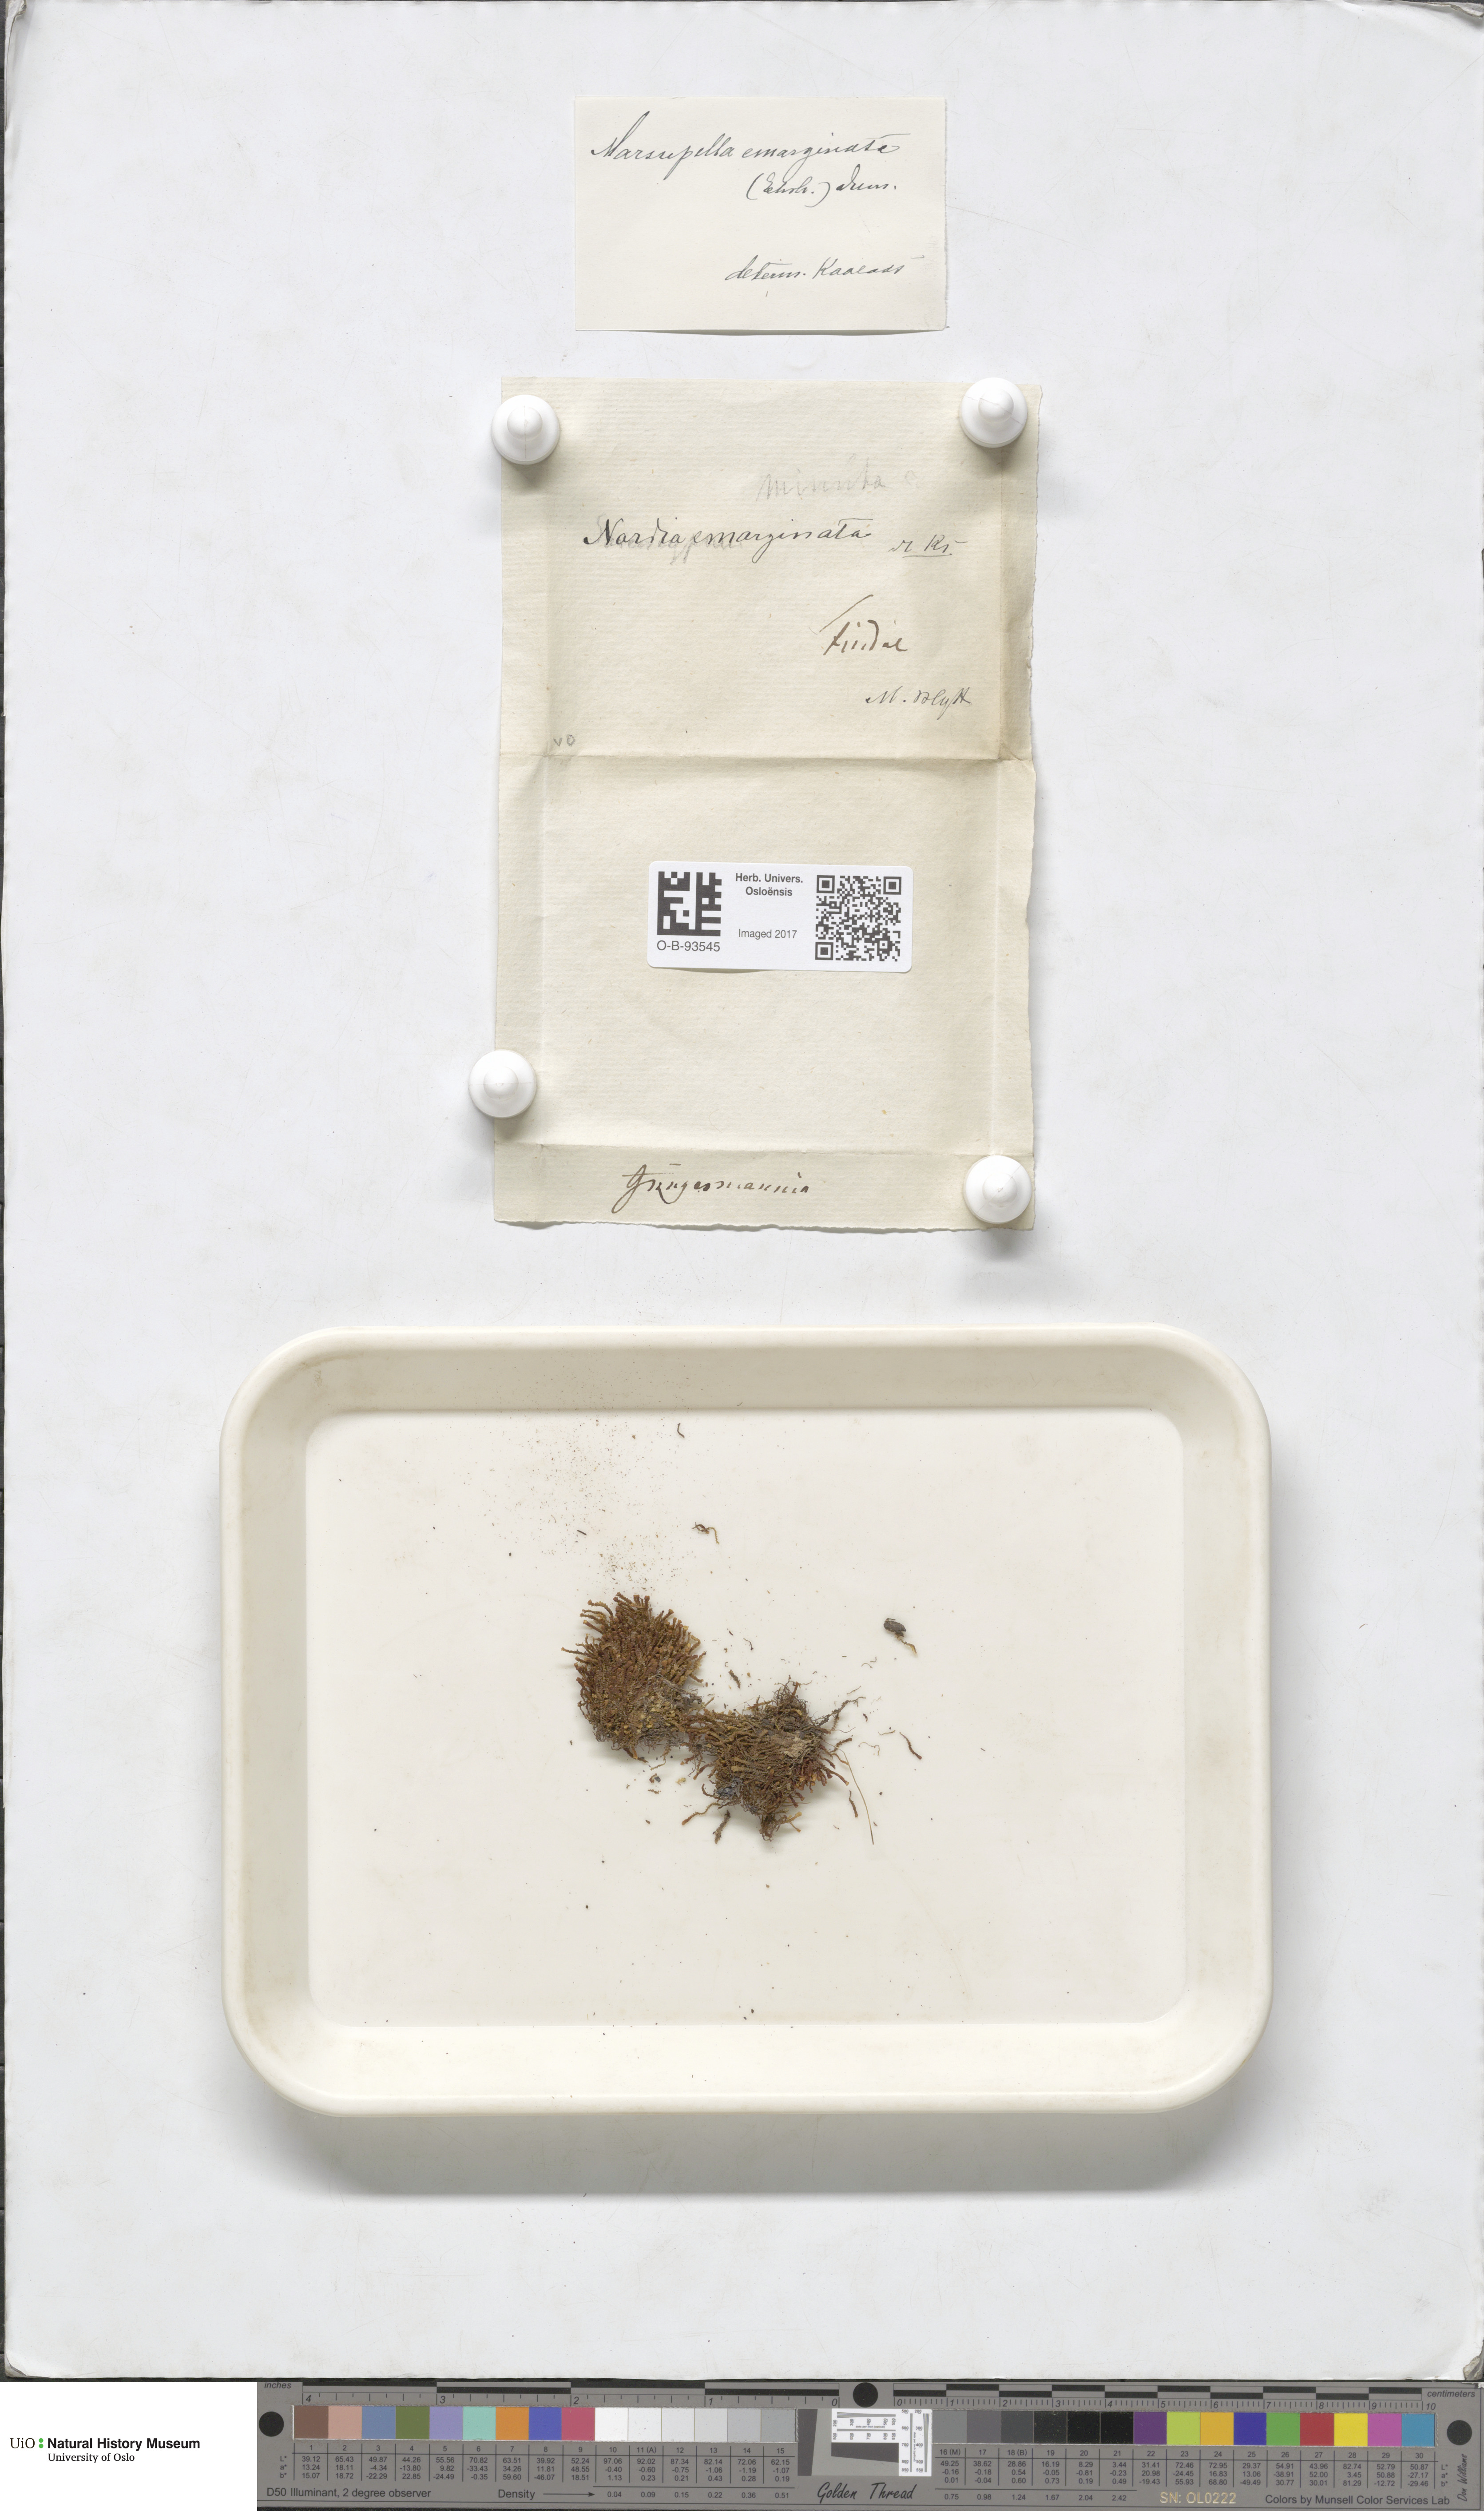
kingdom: Plantae
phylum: Marchantiophyta
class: Jungermanniopsida
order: Jungermanniales
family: Gymnomitriaceae
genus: Marsupella
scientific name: Marsupella emarginata
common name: Notched rustwort
